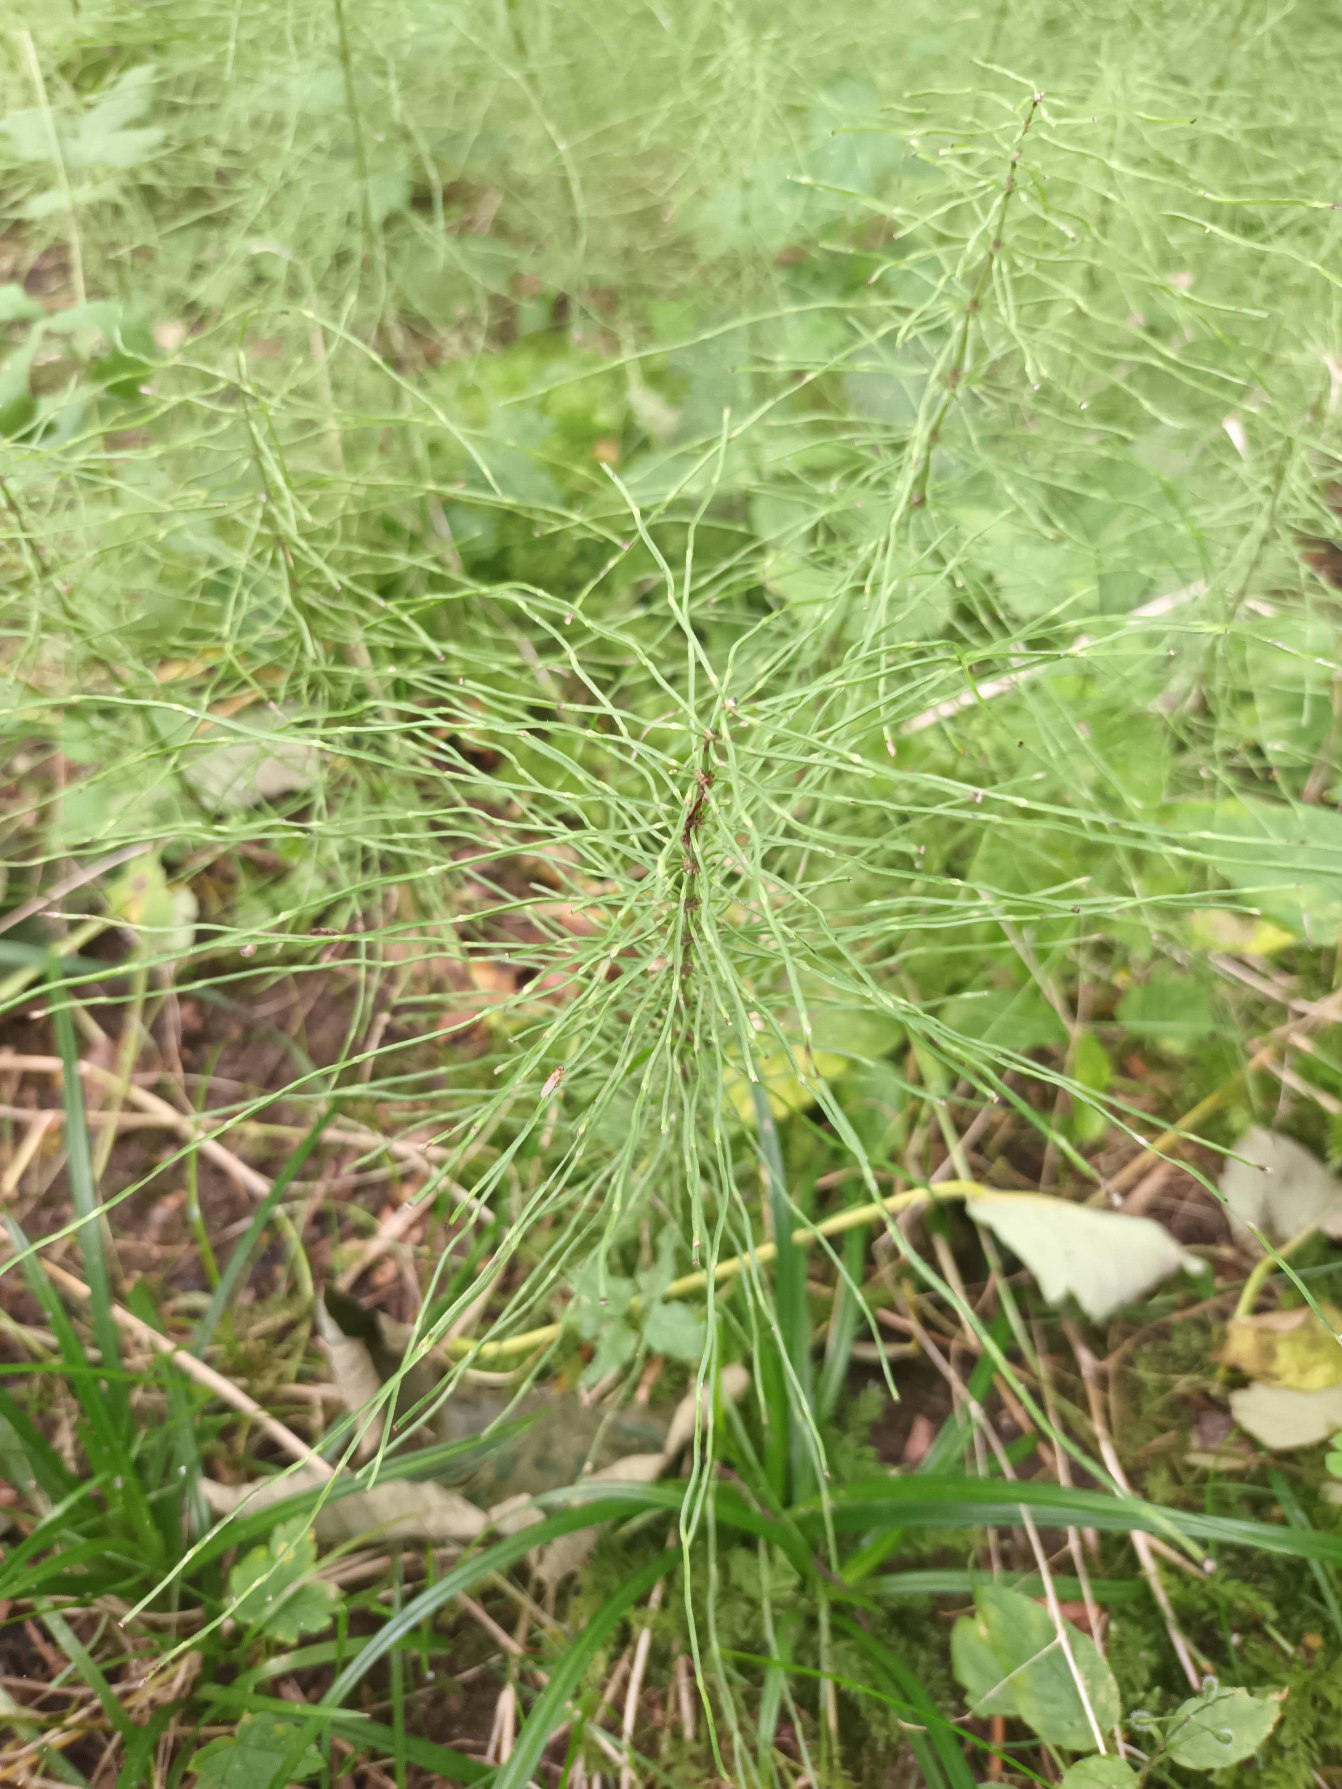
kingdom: Plantae
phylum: Tracheophyta
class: Polypodiopsida
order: Equisetales
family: Equisetaceae
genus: Equisetum
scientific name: Equisetum pratense
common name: Lund-padderok
